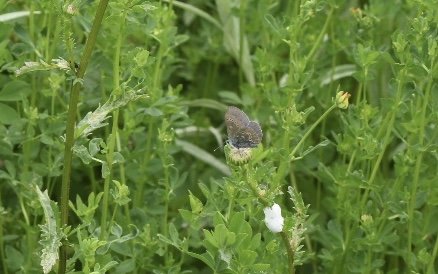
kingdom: Animalia
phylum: Arthropoda
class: Insecta
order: Lepidoptera
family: Lycaenidae
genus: Glaucopsyche
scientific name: Glaucopsyche lygdamus
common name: Silvery Blue
